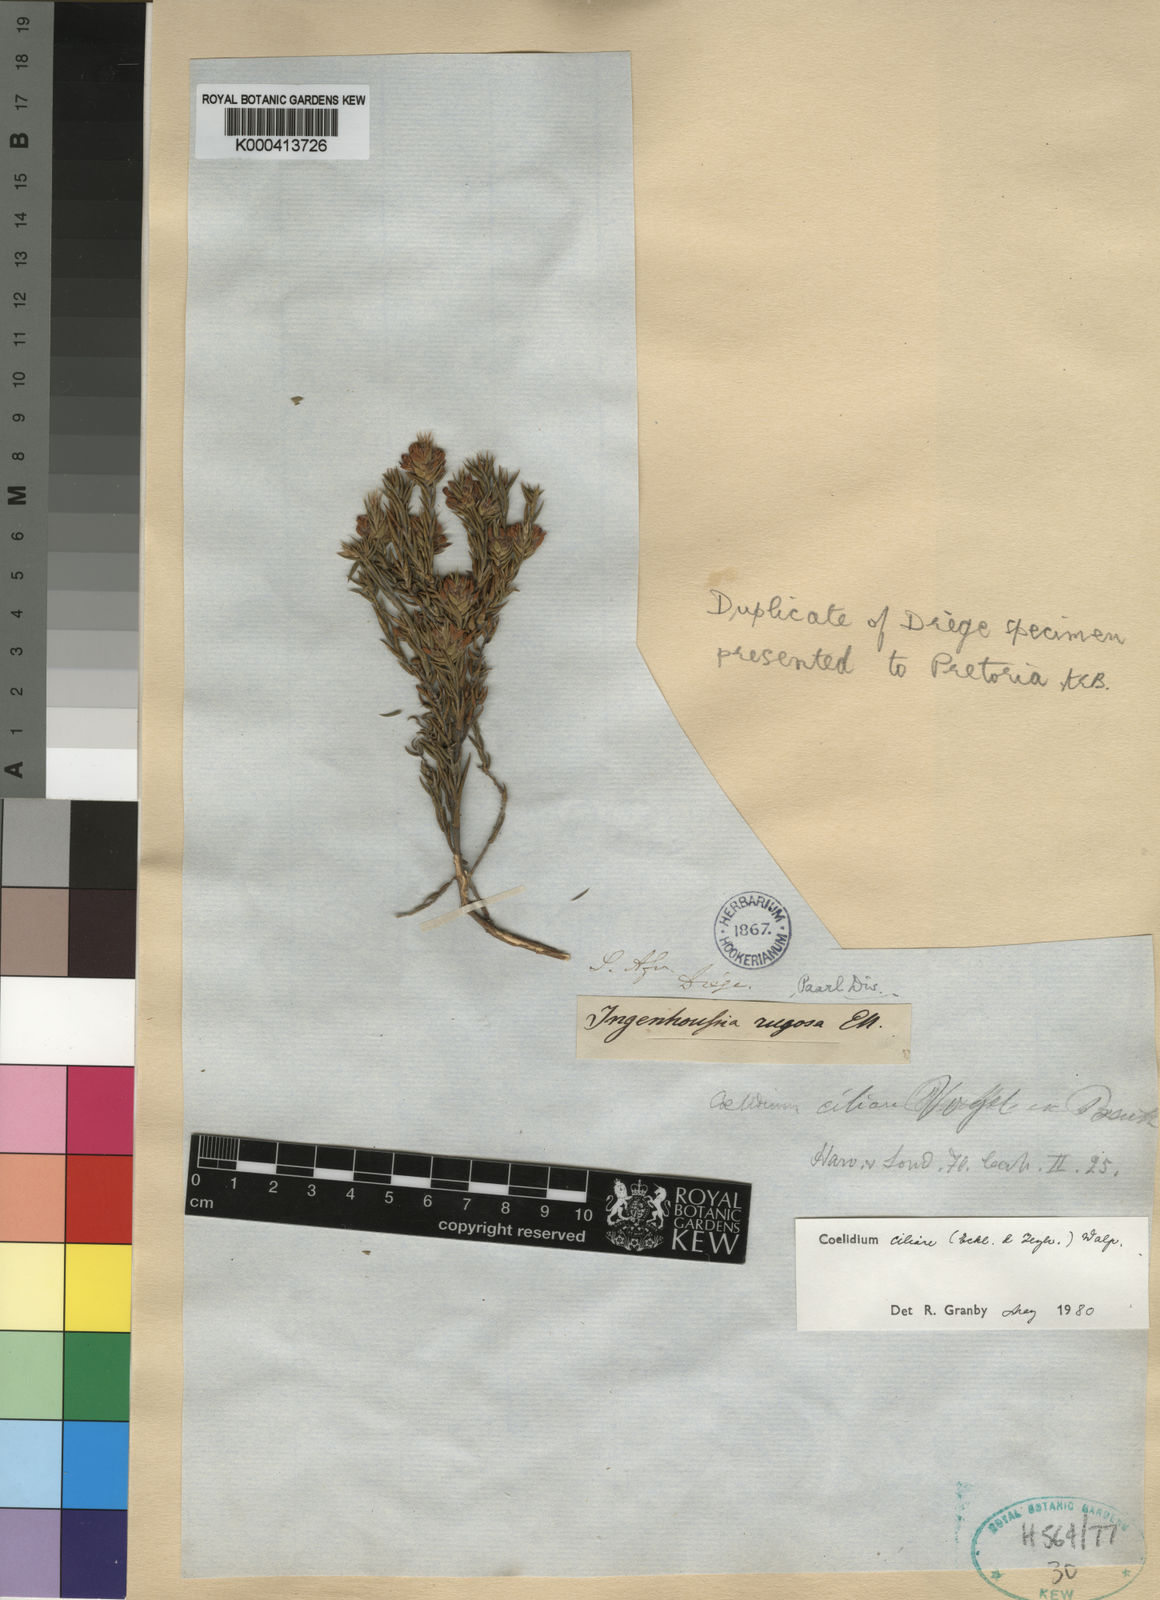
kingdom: Plantae
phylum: Tracheophyta
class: Magnoliopsida
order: Fabales
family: Fabaceae
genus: Amphithalea
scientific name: Amphithalea ciliaris
